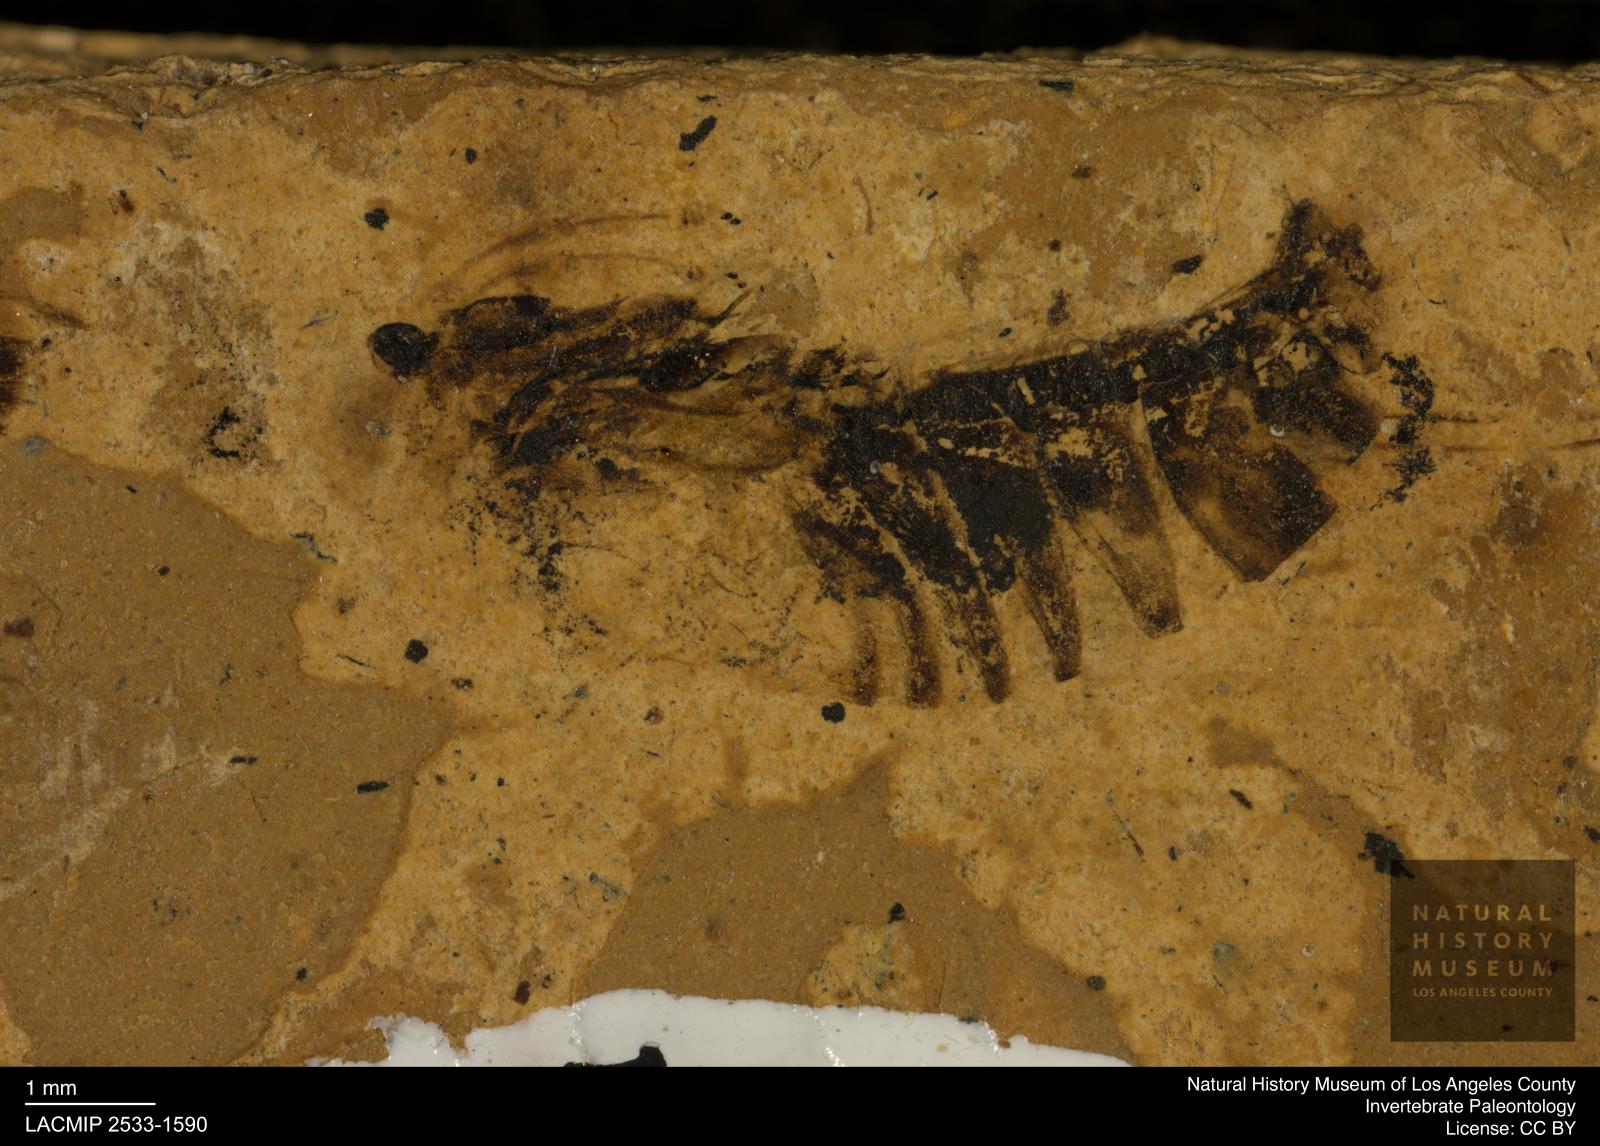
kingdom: Animalia
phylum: Arthropoda
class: Insecta
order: Hemiptera
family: Notonectidae
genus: Notonecta
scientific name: Notonecta
